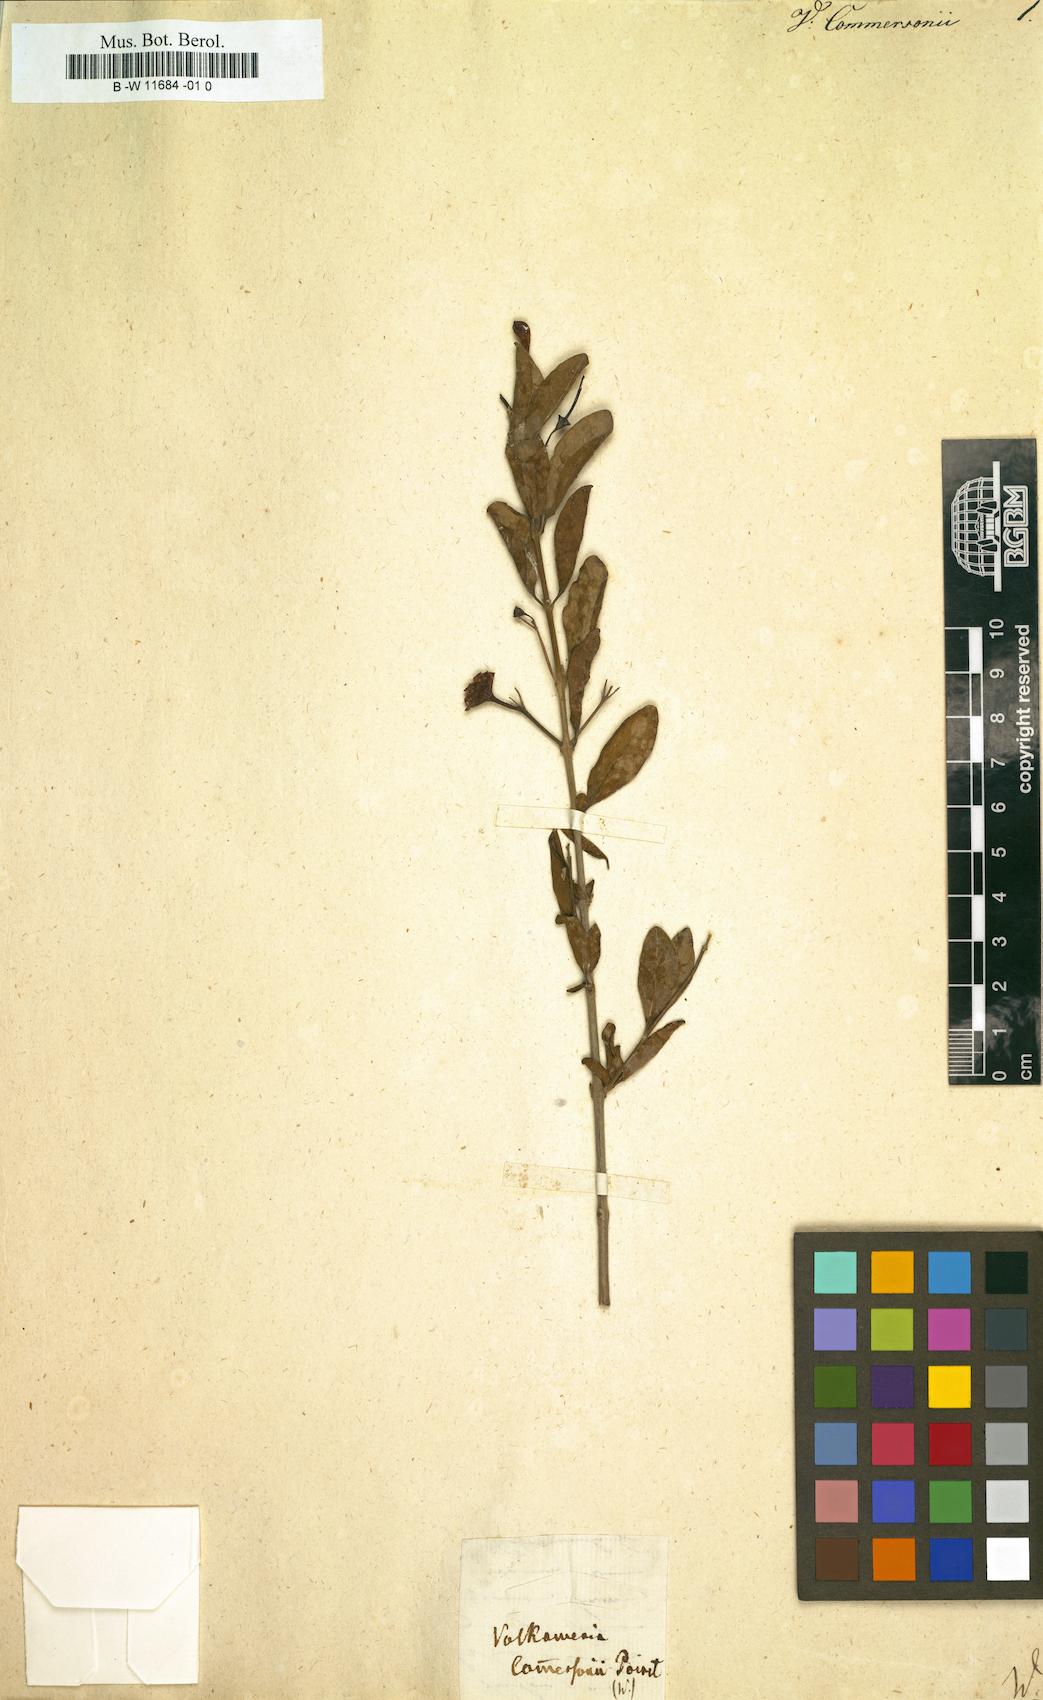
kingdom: Plantae
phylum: Tracheophyta
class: Magnoliopsida
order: Lamiales
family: Lamiaceae
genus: Volkameria
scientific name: Volkameria inermis
